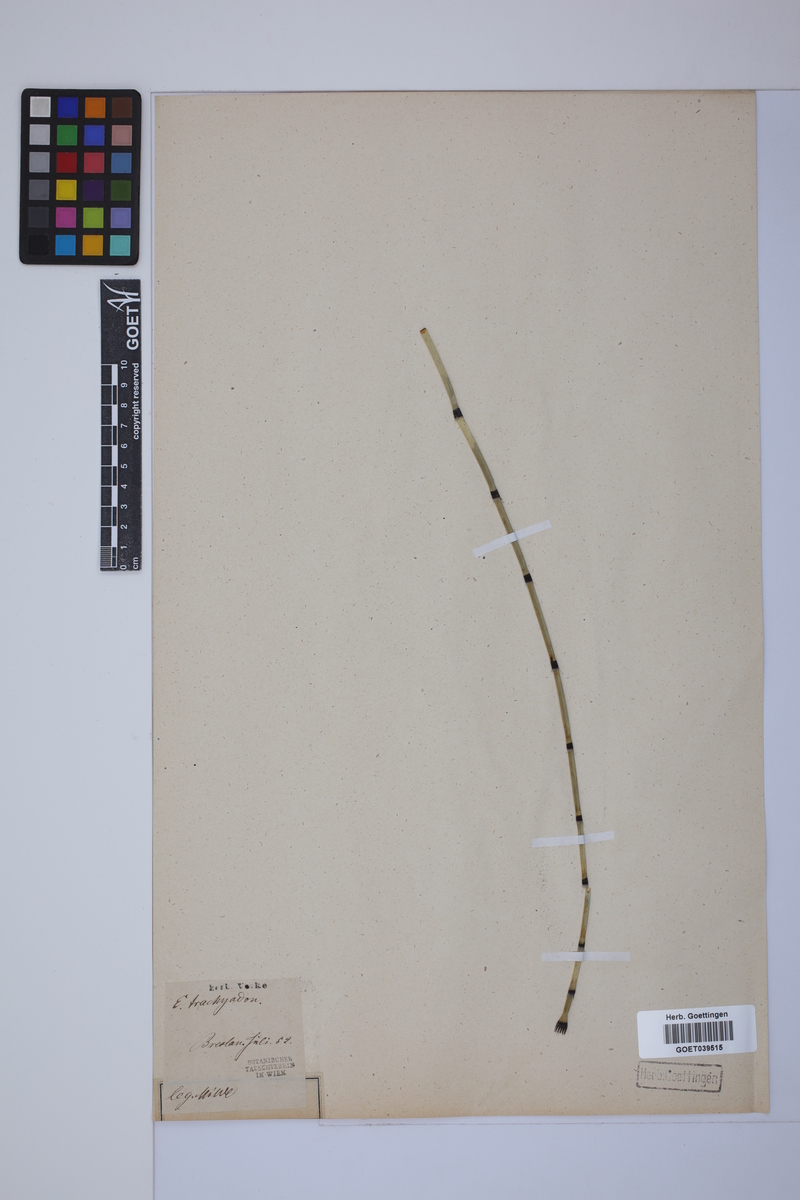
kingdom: Plantae
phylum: Tracheophyta
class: Polypodiopsida
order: Equisetales
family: Equisetaceae
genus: Equisetum
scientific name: Equisetum trachyodon
